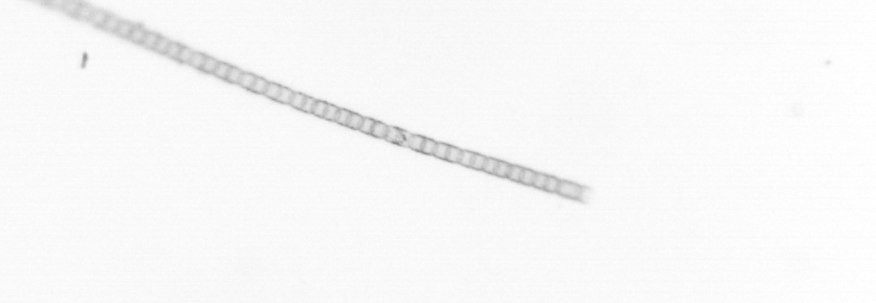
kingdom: Chromista
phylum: Ochrophyta
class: Bacillariophyceae
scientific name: Bacillariophyceae
